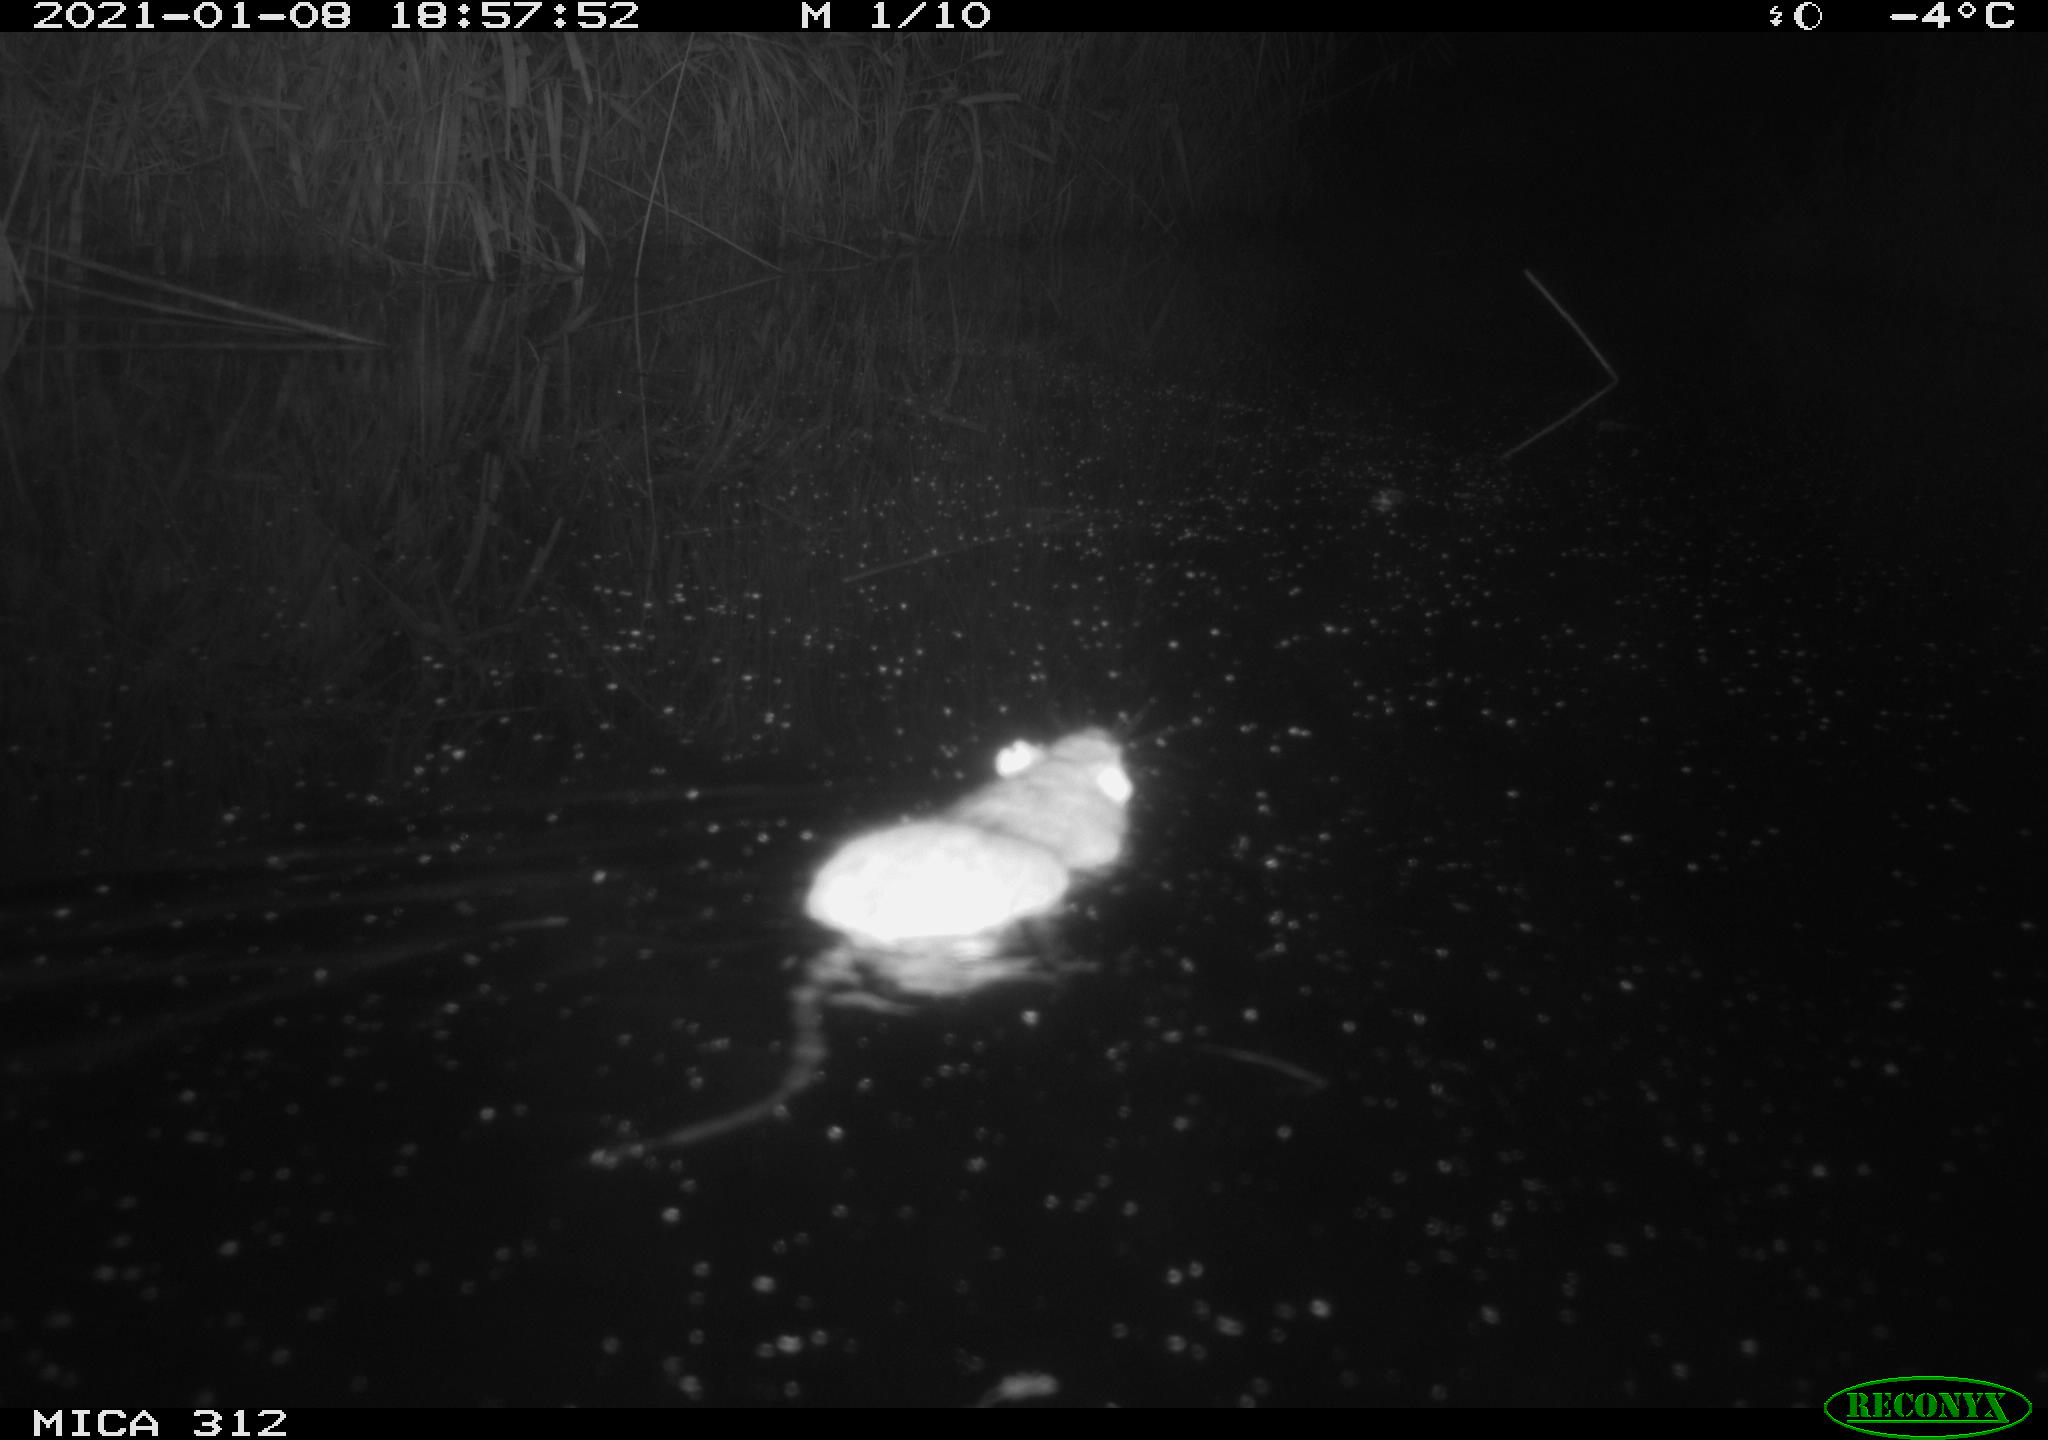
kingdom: Animalia
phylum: Chordata
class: Mammalia
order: Rodentia
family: Muridae
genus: Rattus
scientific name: Rattus norvegicus
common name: Brown rat
